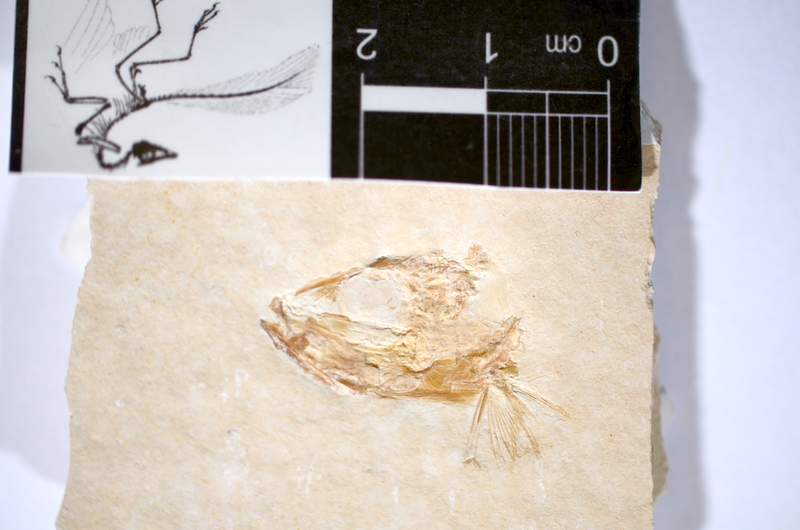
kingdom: Animalia
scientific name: Animalia
